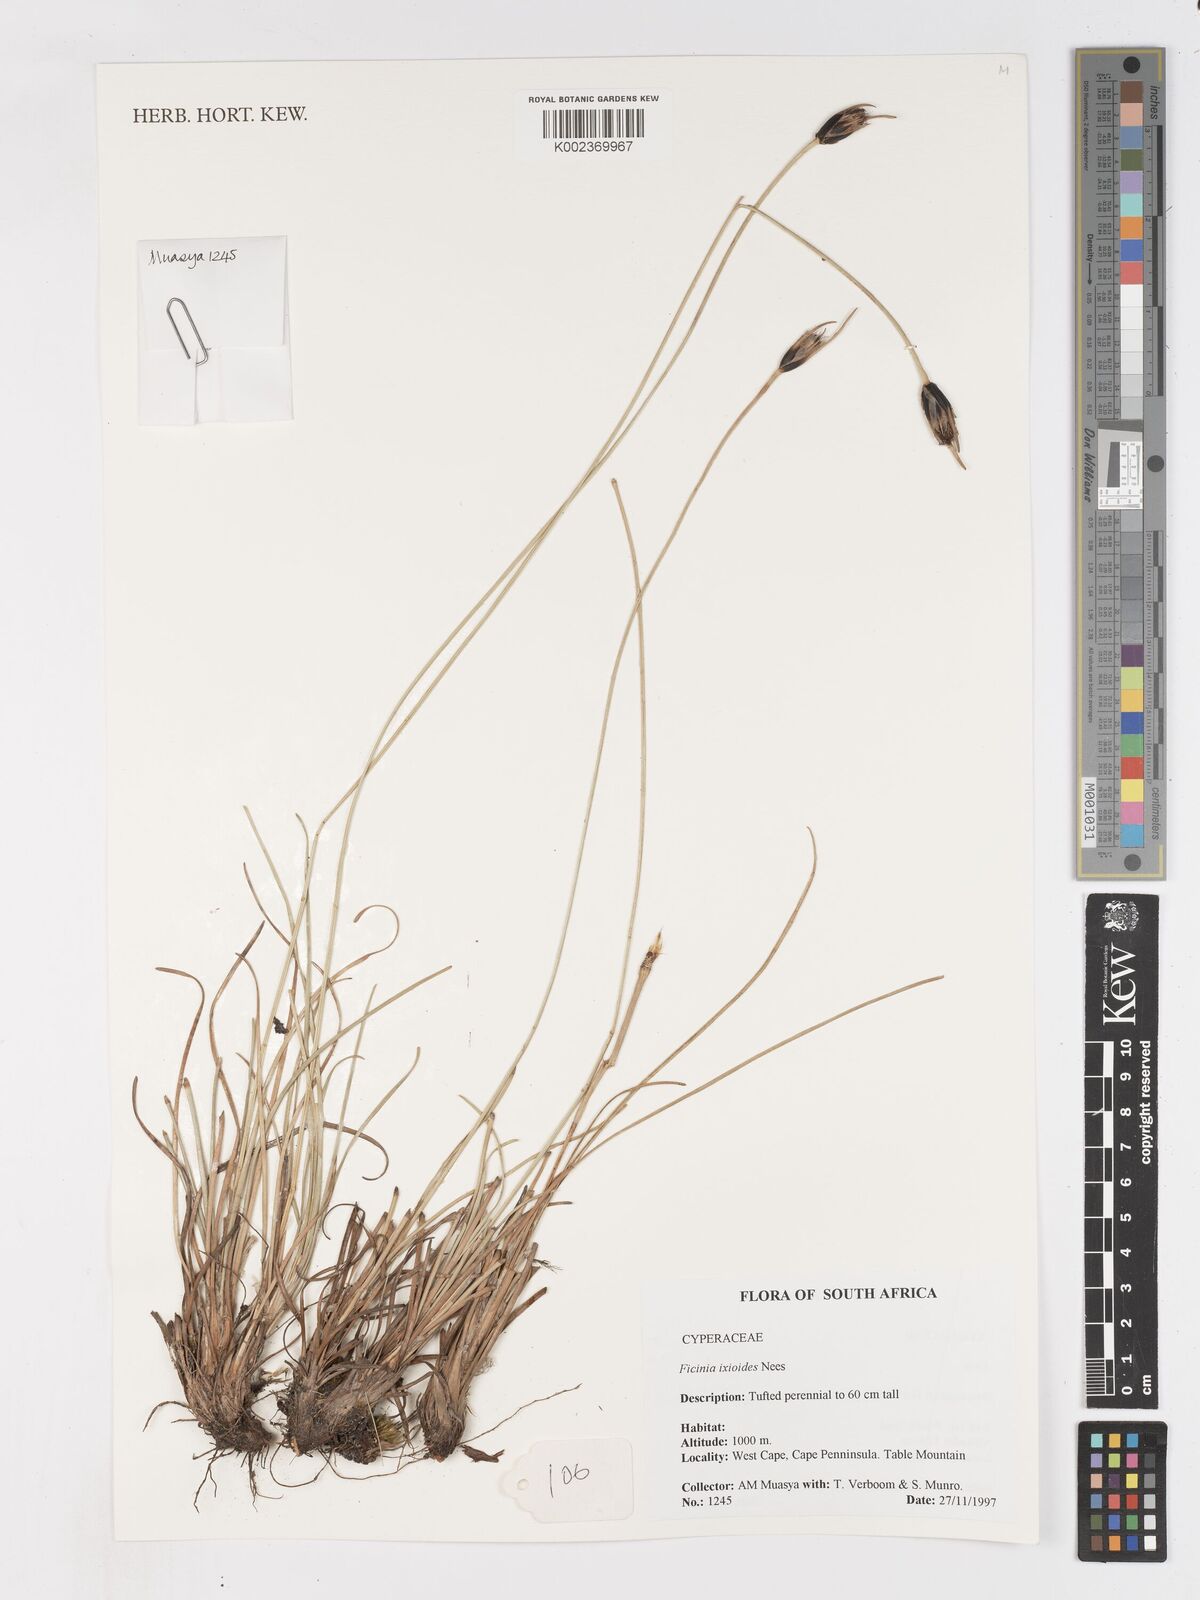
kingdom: Plantae
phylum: Tracheophyta
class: Liliopsida
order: Poales
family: Cyperaceae
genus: Ficinia
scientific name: Ficinia ixioides
